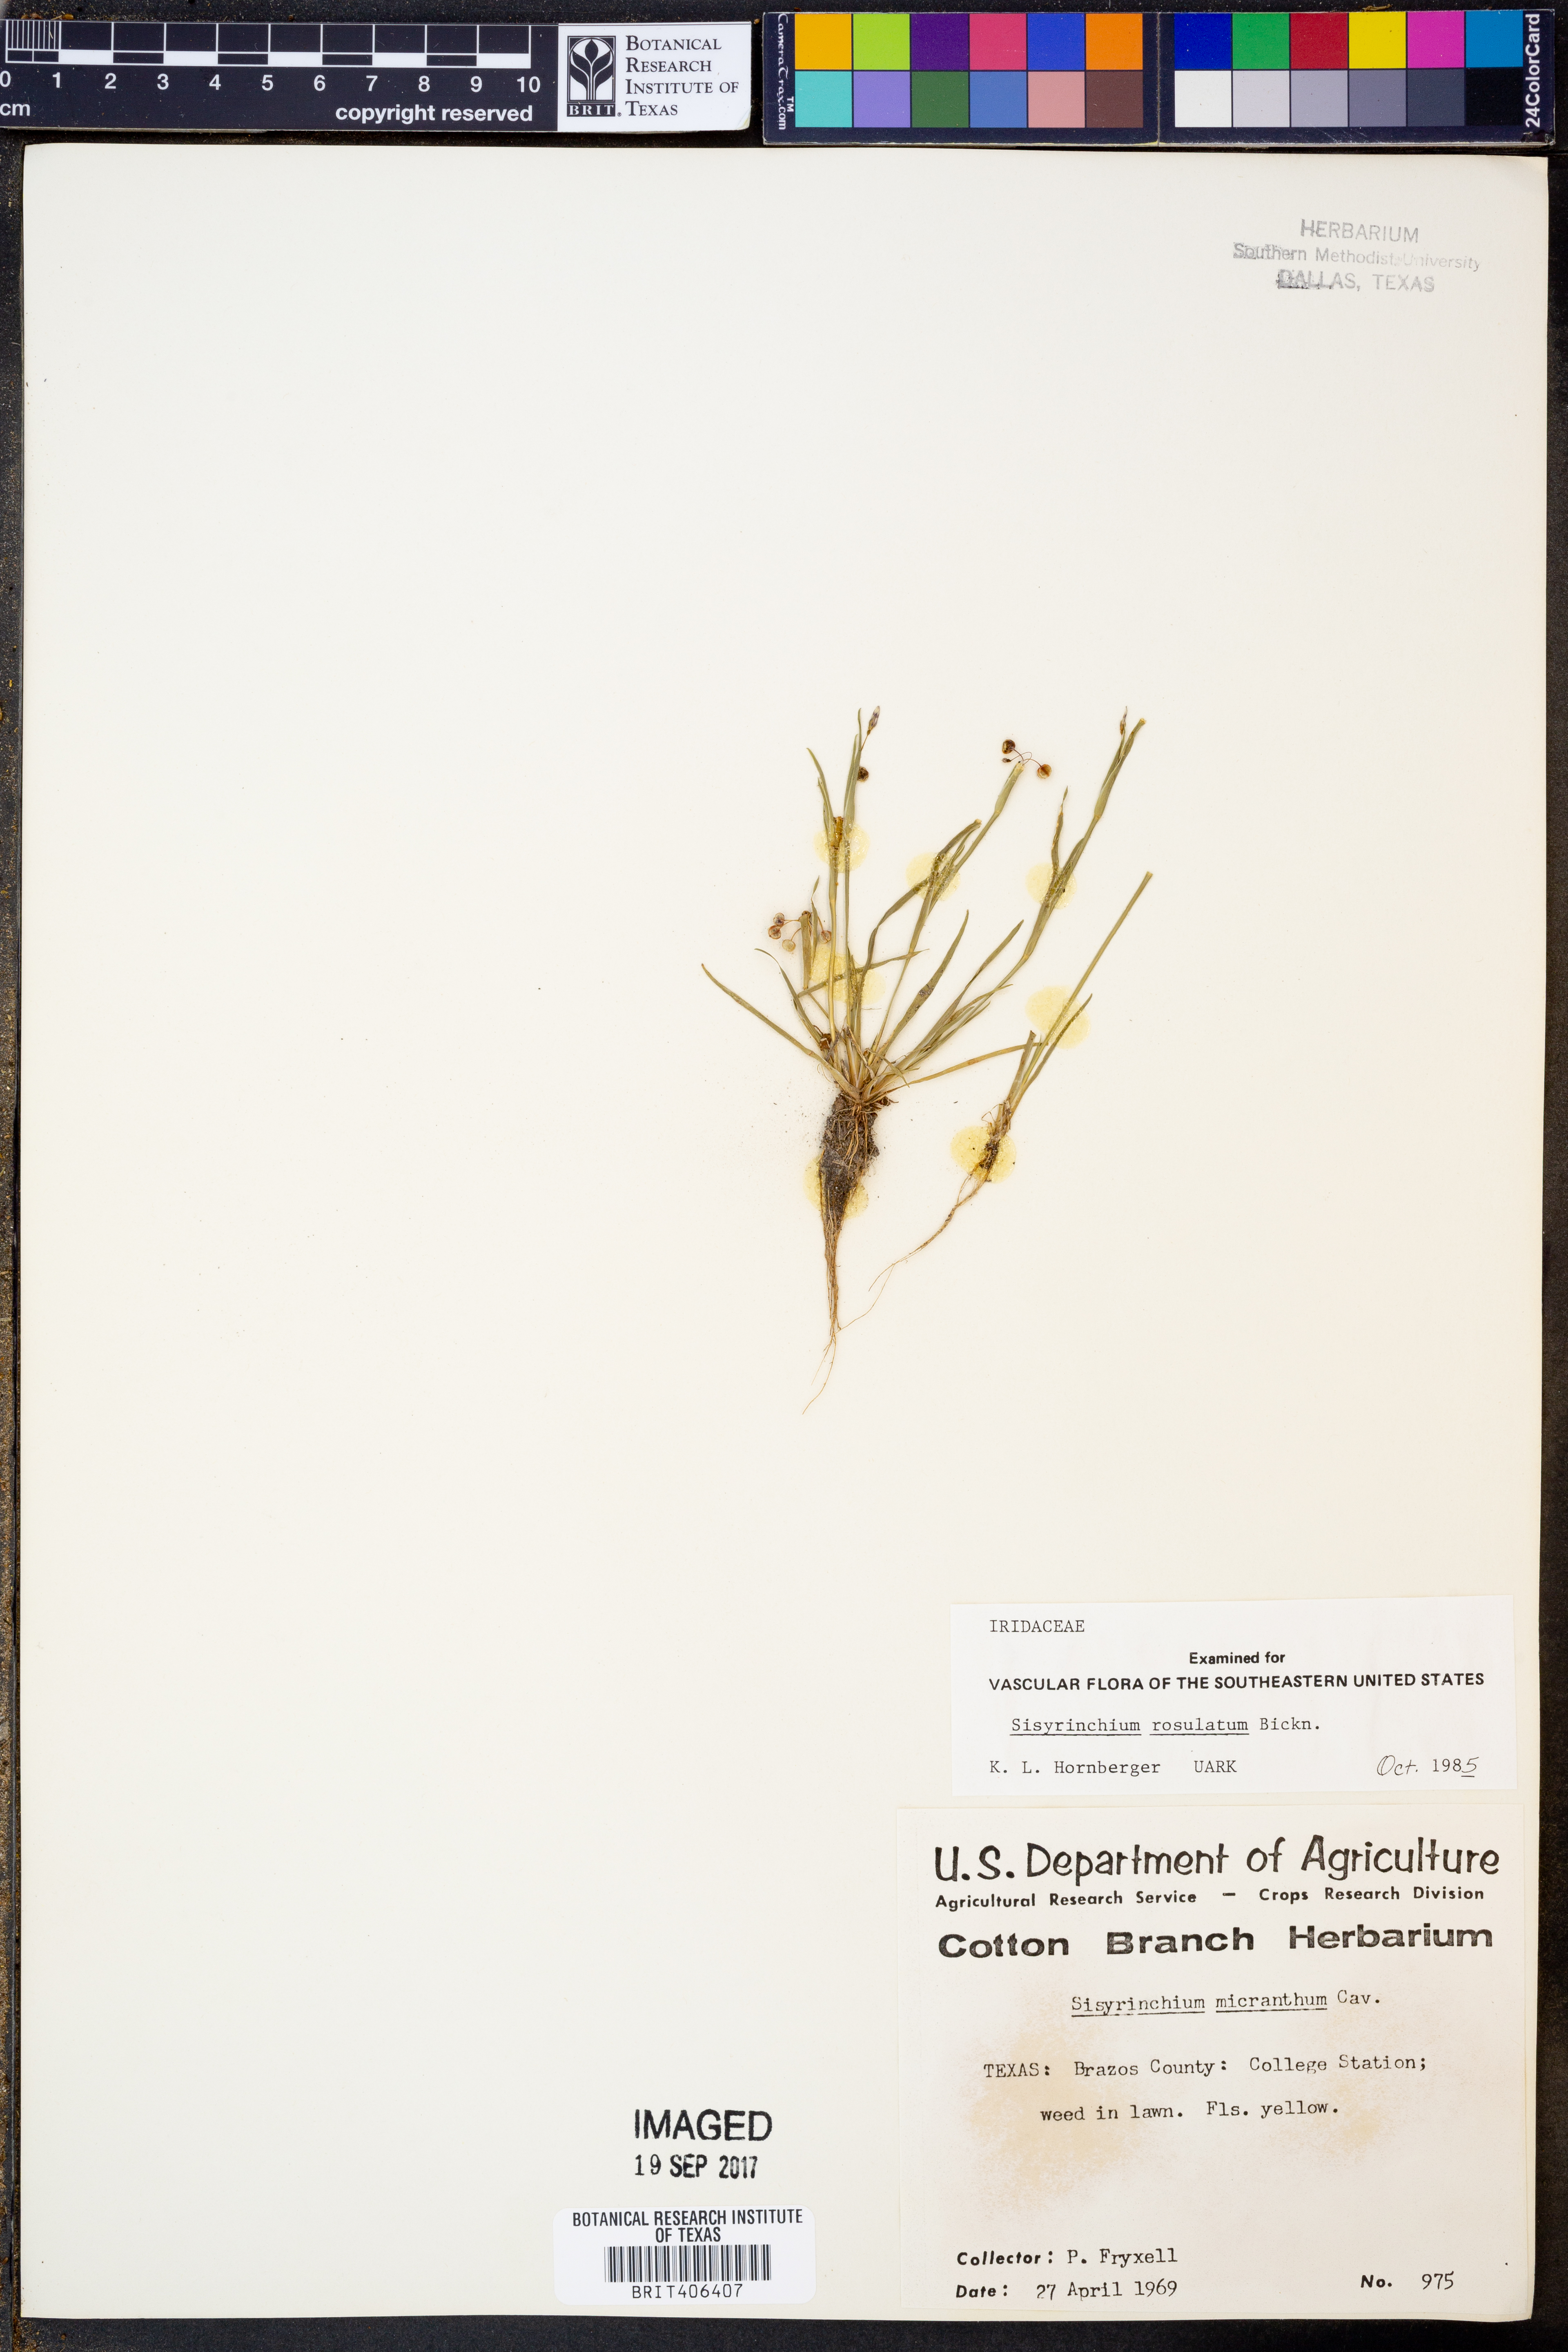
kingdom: Plantae
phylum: Tracheophyta
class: Liliopsida
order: Asparagales
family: Iridaceae
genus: Sisyrinchium
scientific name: Sisyrinchium rosulatum
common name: Annual blue-eyed grass
